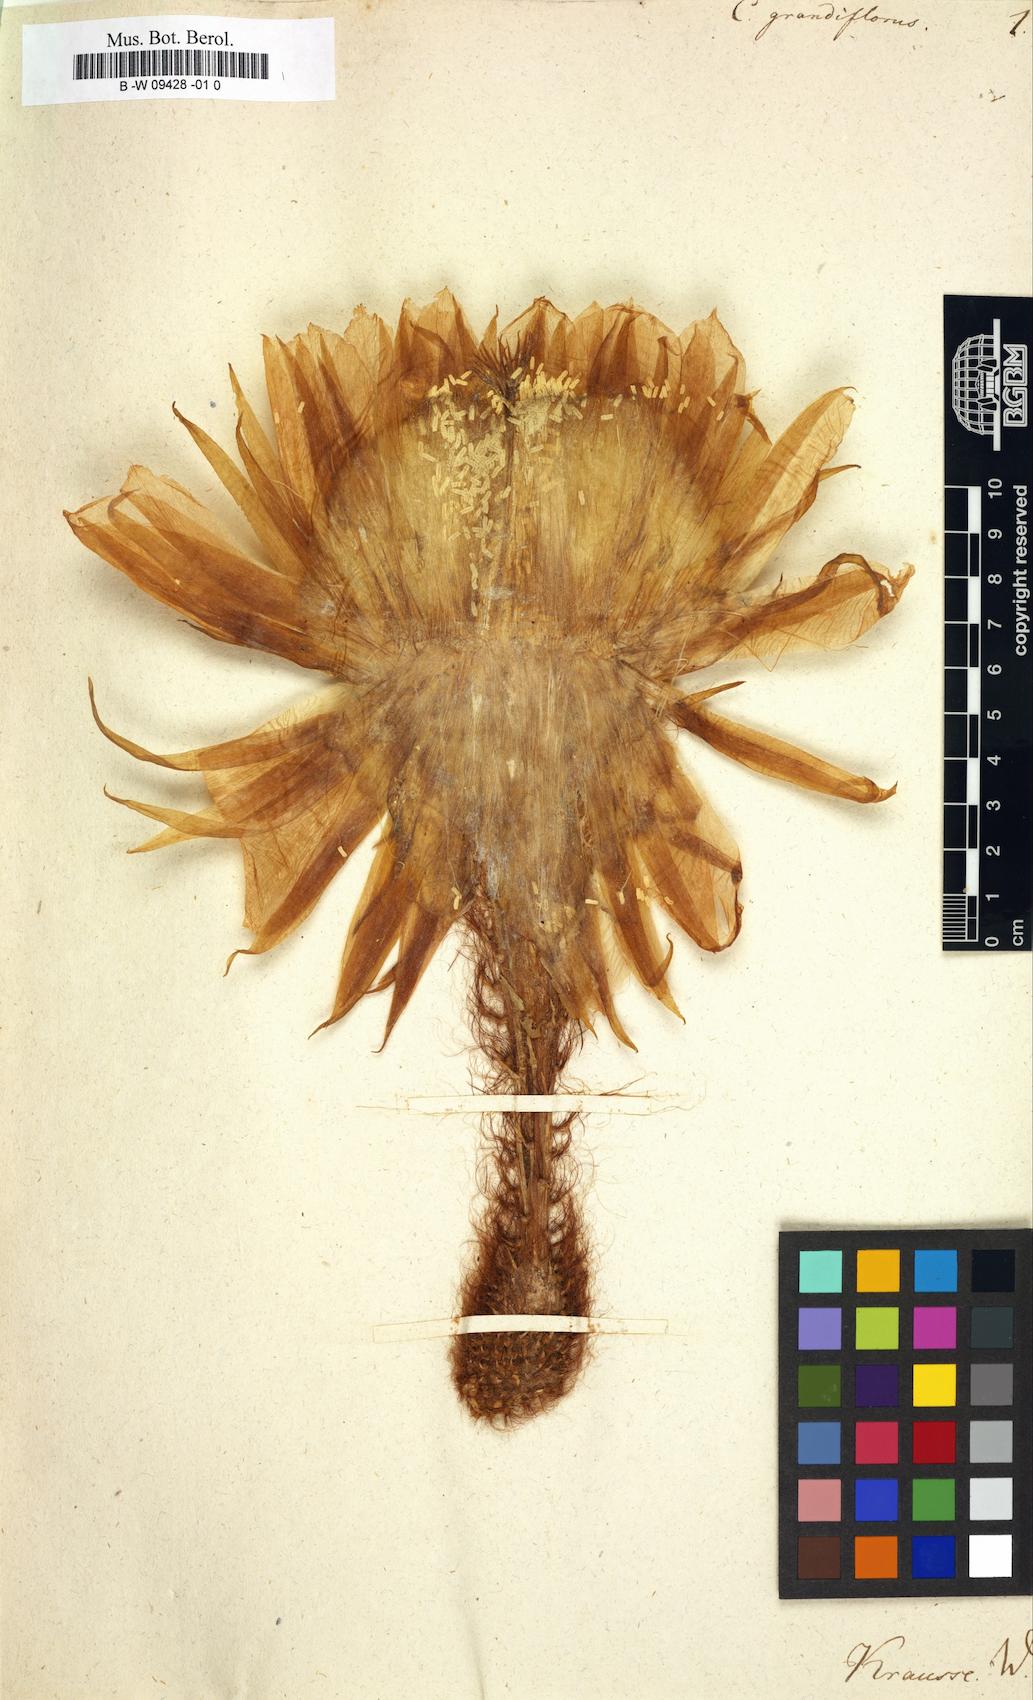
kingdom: Plantae
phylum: Tracheophyta
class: Magnoliopsida
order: Caryophyllales
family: Cactaceae
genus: Selenicereus
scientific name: Selenicereus grandiflorus
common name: Queen of the night
